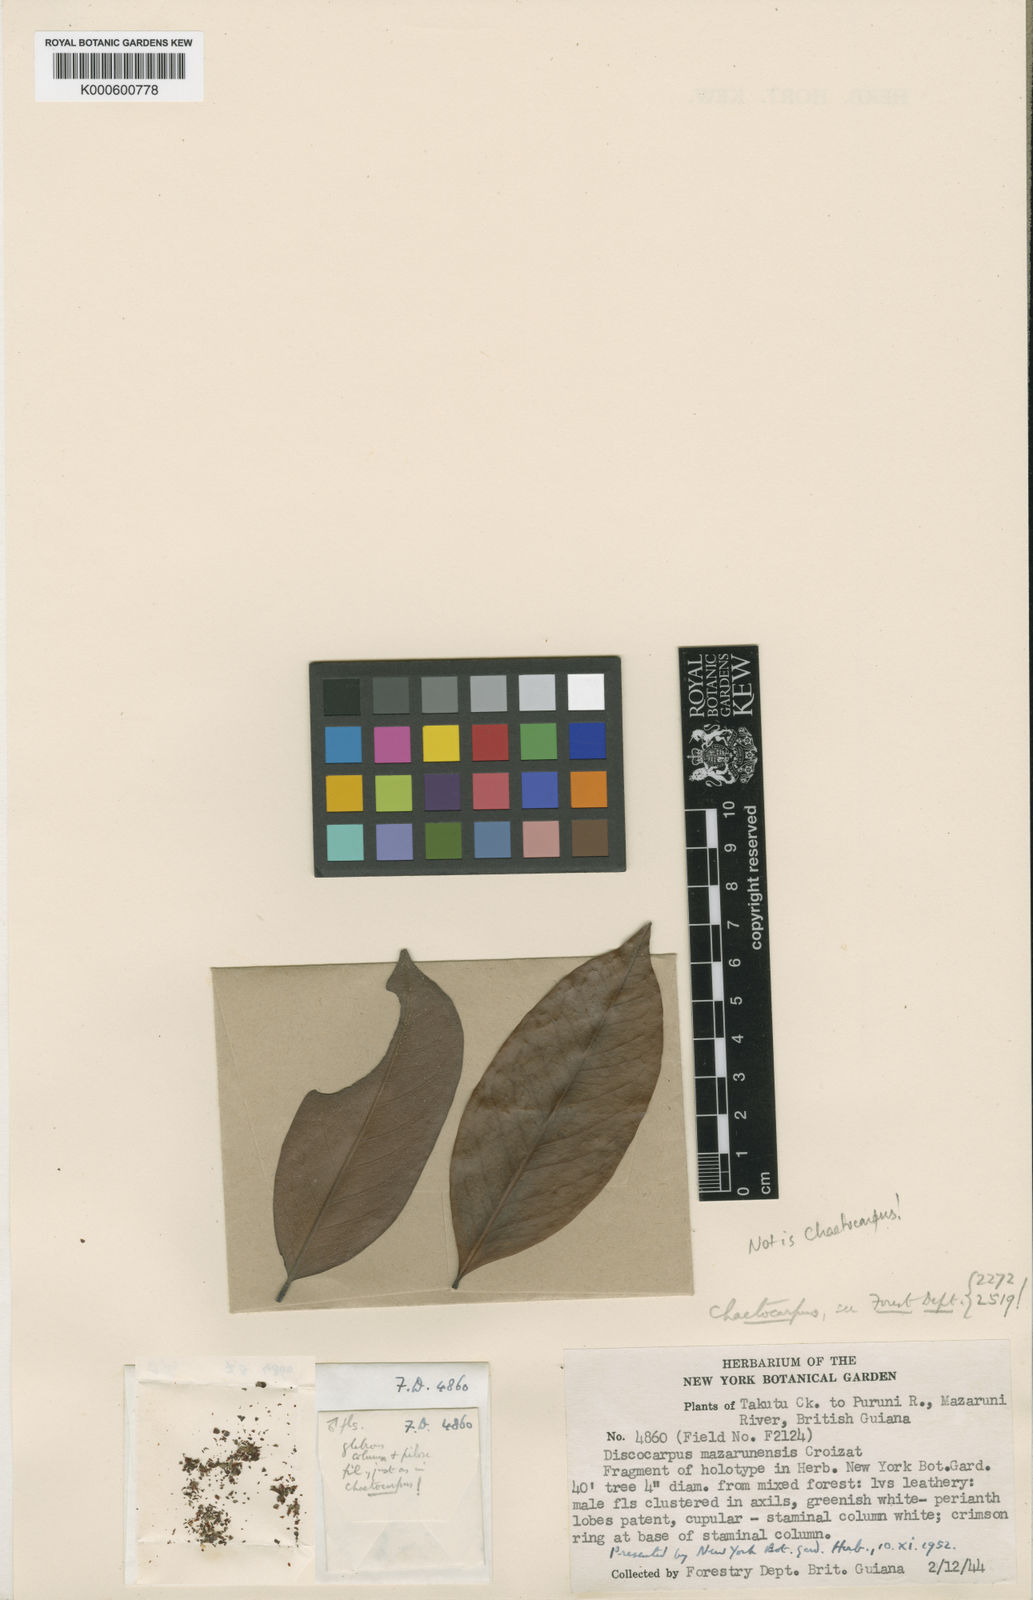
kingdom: Plantae
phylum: Tracheophyta
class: Magnoliopsida
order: Malpighiales
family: Peraceae
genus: Chaetocarpus
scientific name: Chaetocarpus schomburgkianus
